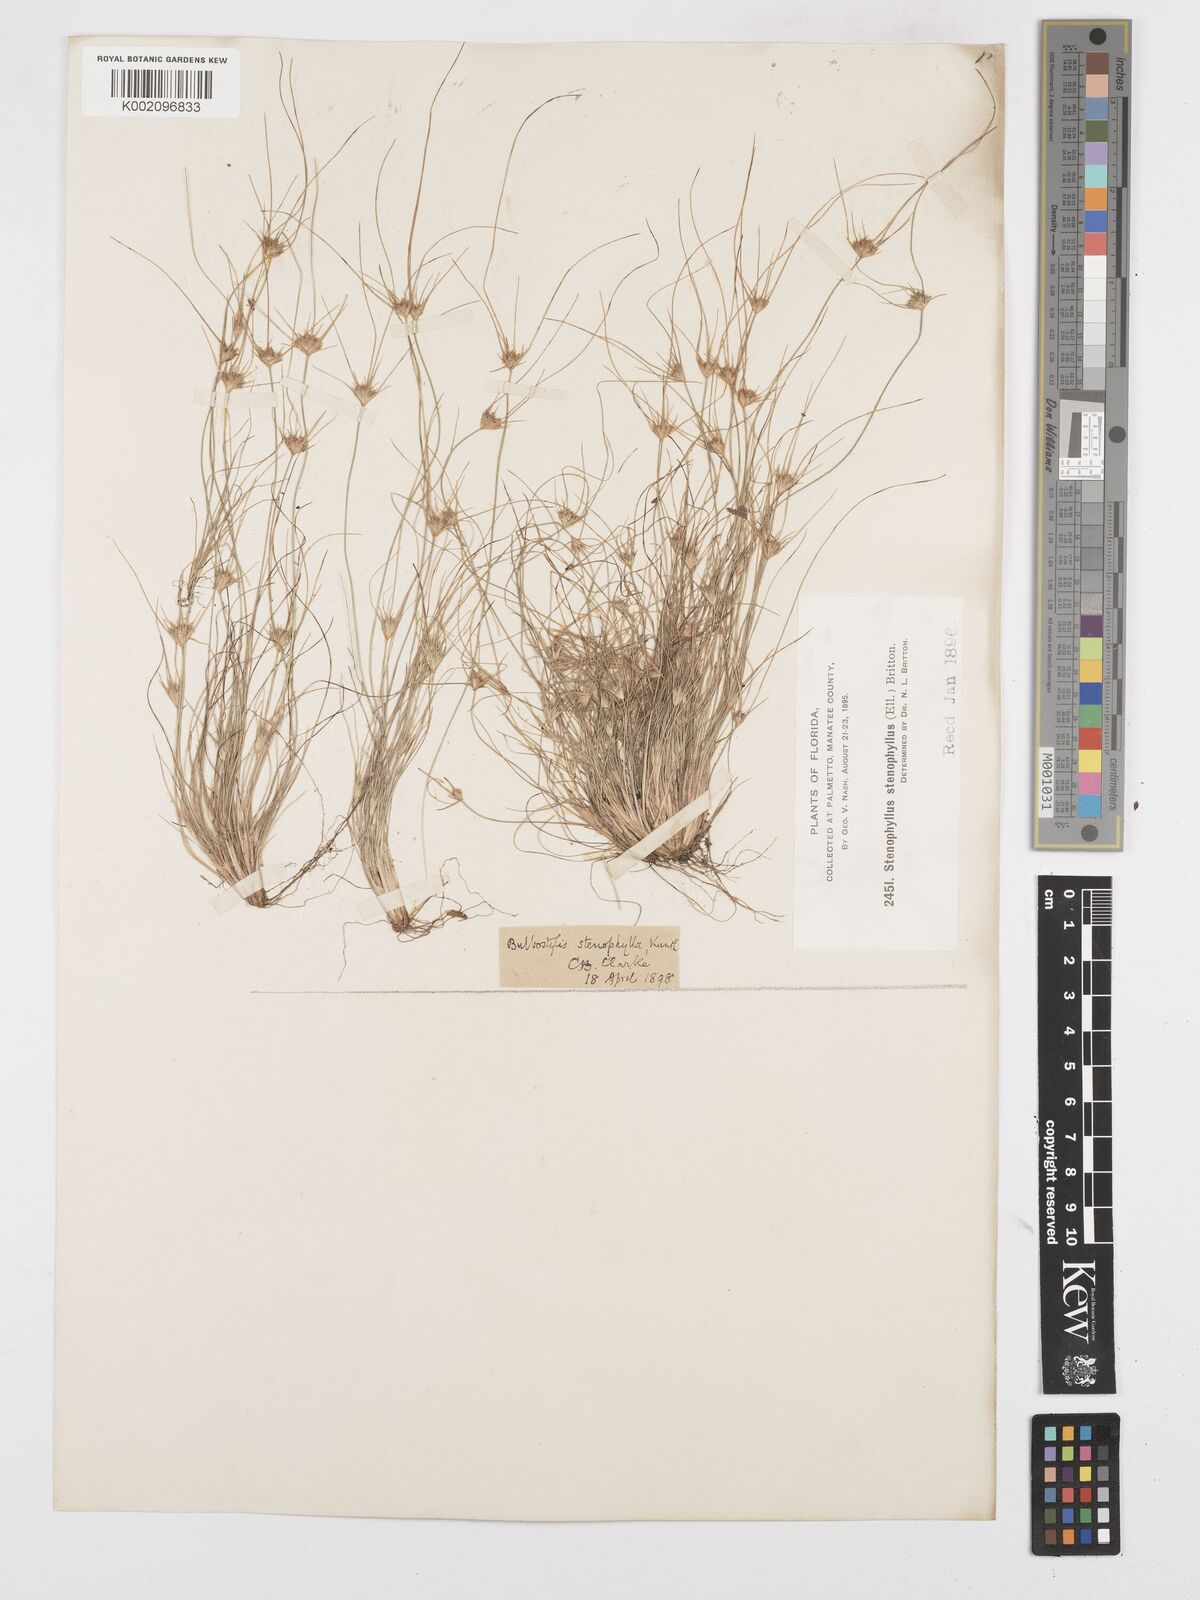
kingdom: Plantae
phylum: Tracheophyta
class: Liliopsida
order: Poales
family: Cyperaceae
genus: Bulbostylis
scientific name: Bulbostylis rarissima
